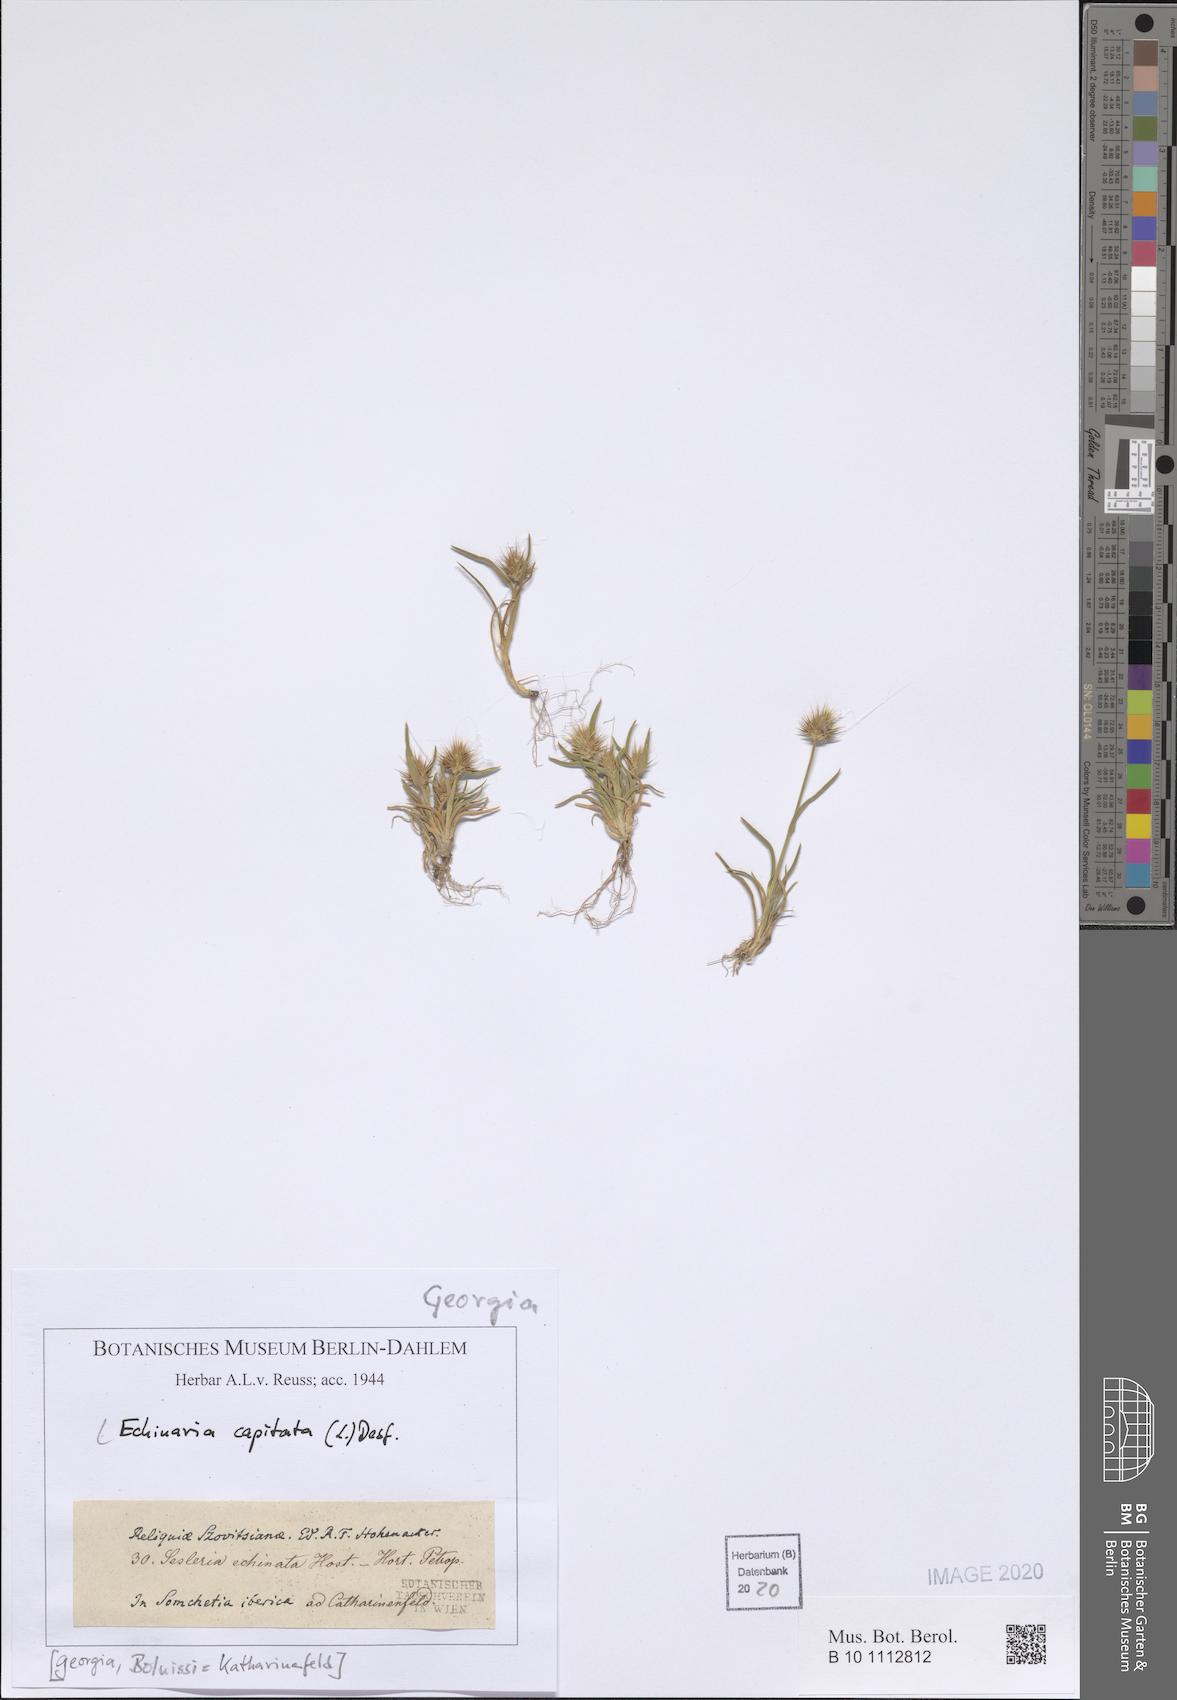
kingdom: Plantae
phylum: Tracheophyta
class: Liliopsida
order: Poales
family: Poaceae
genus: Echinaria
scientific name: Echinaria capitata
